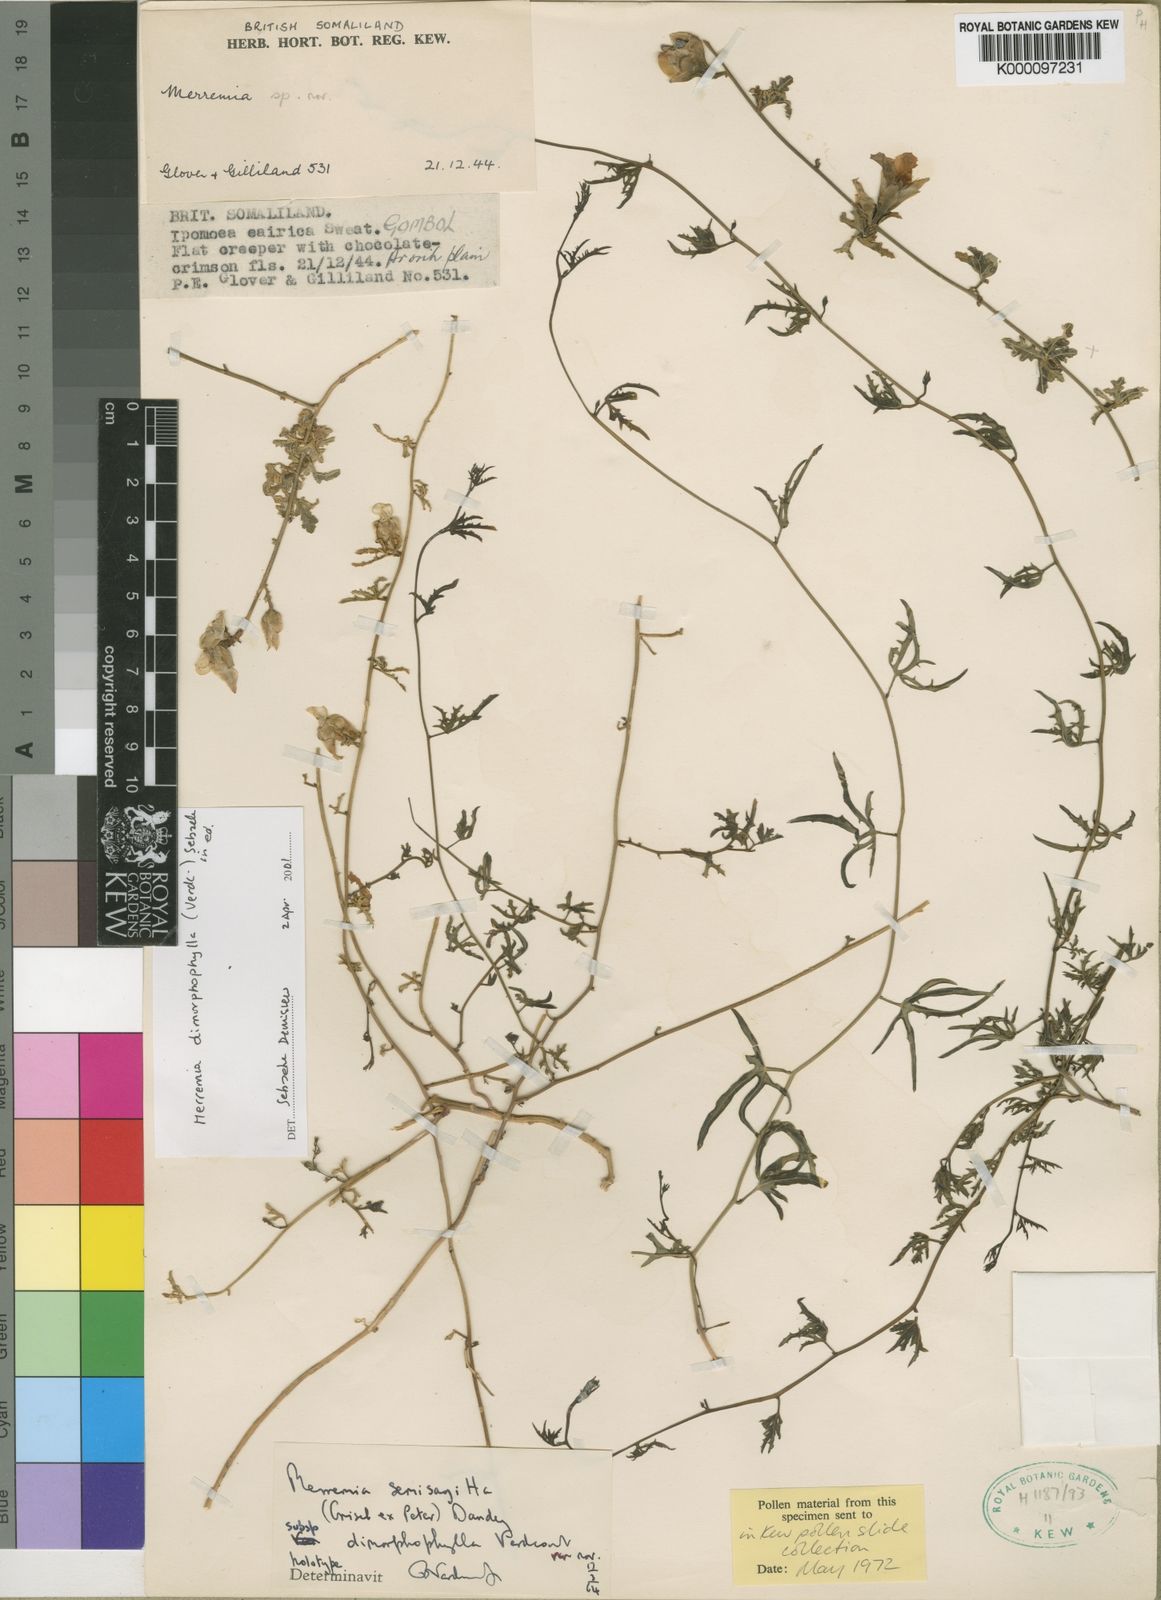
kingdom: Plantae
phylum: Tracheophyta
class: Magnoliopsida
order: Solanales
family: Convolvulaceae
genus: Distimake
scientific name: Distimake
